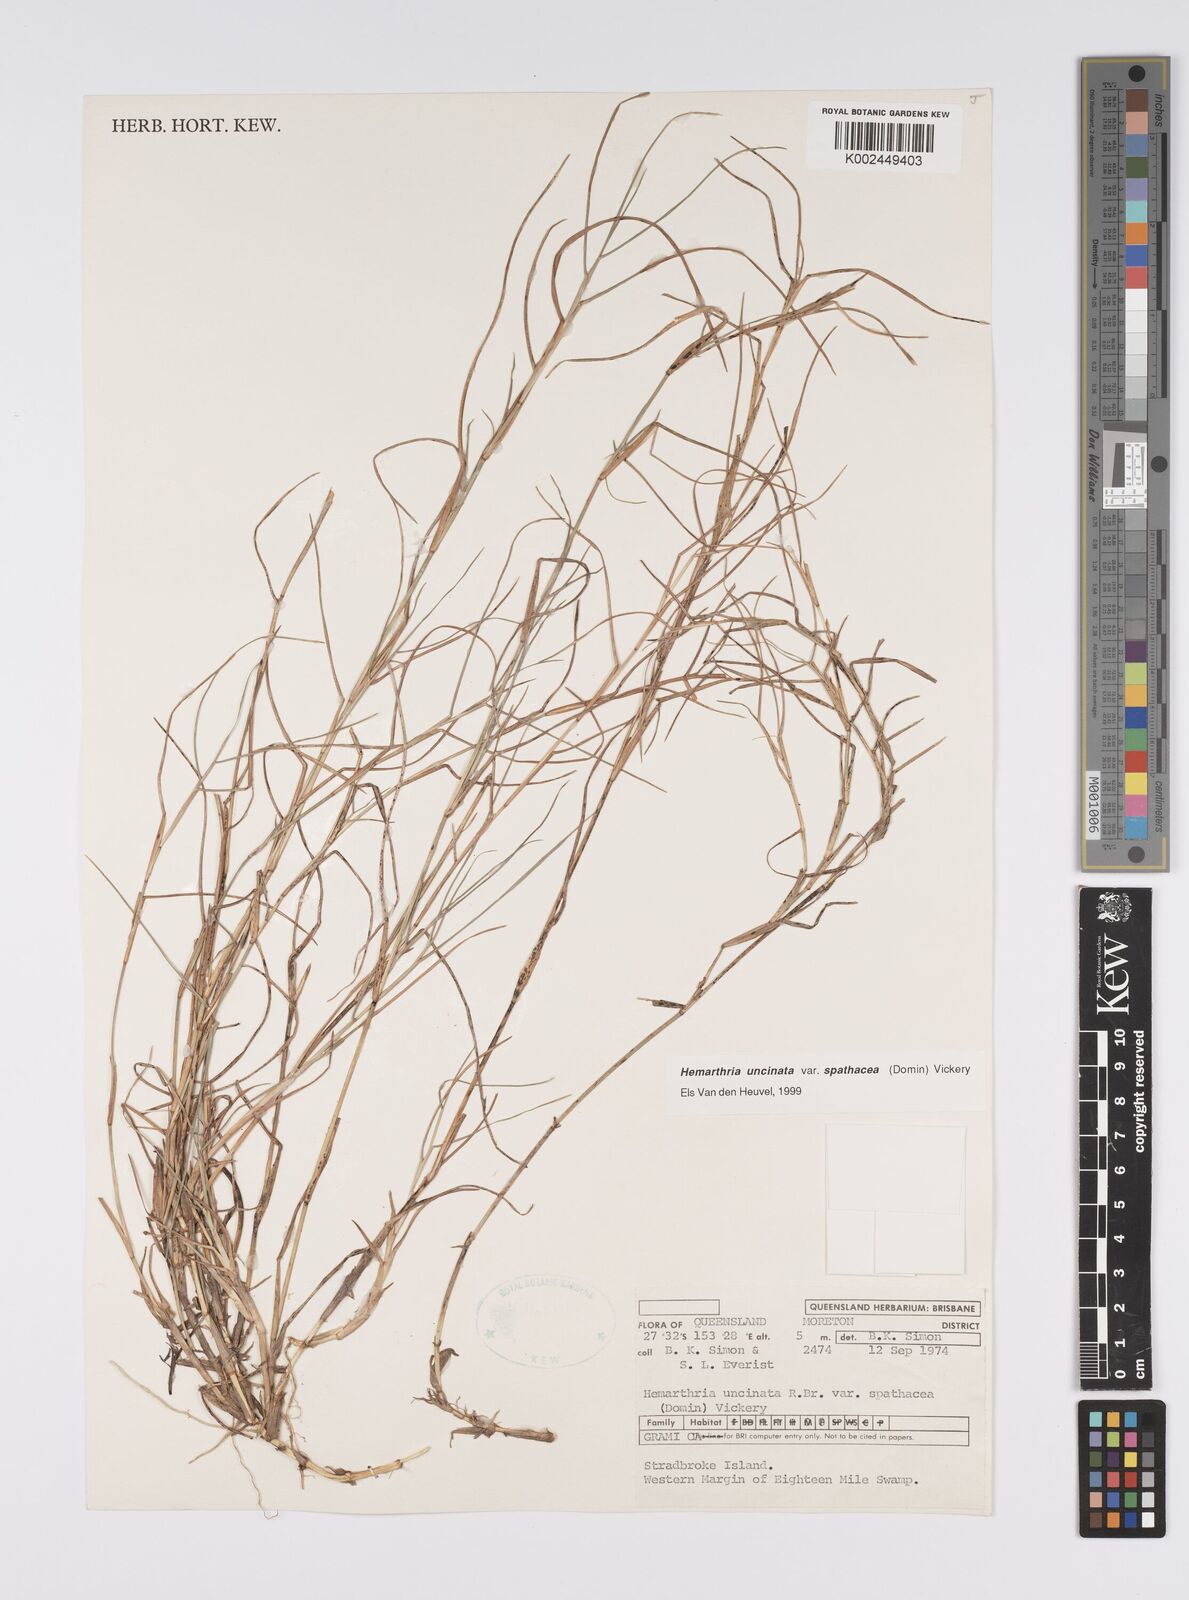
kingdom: Plantae
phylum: Tracheophyta
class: Liliopsida
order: Poales
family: Poaceae
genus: Hemarthria
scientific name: Hemarthria uncinata
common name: Matgrass
